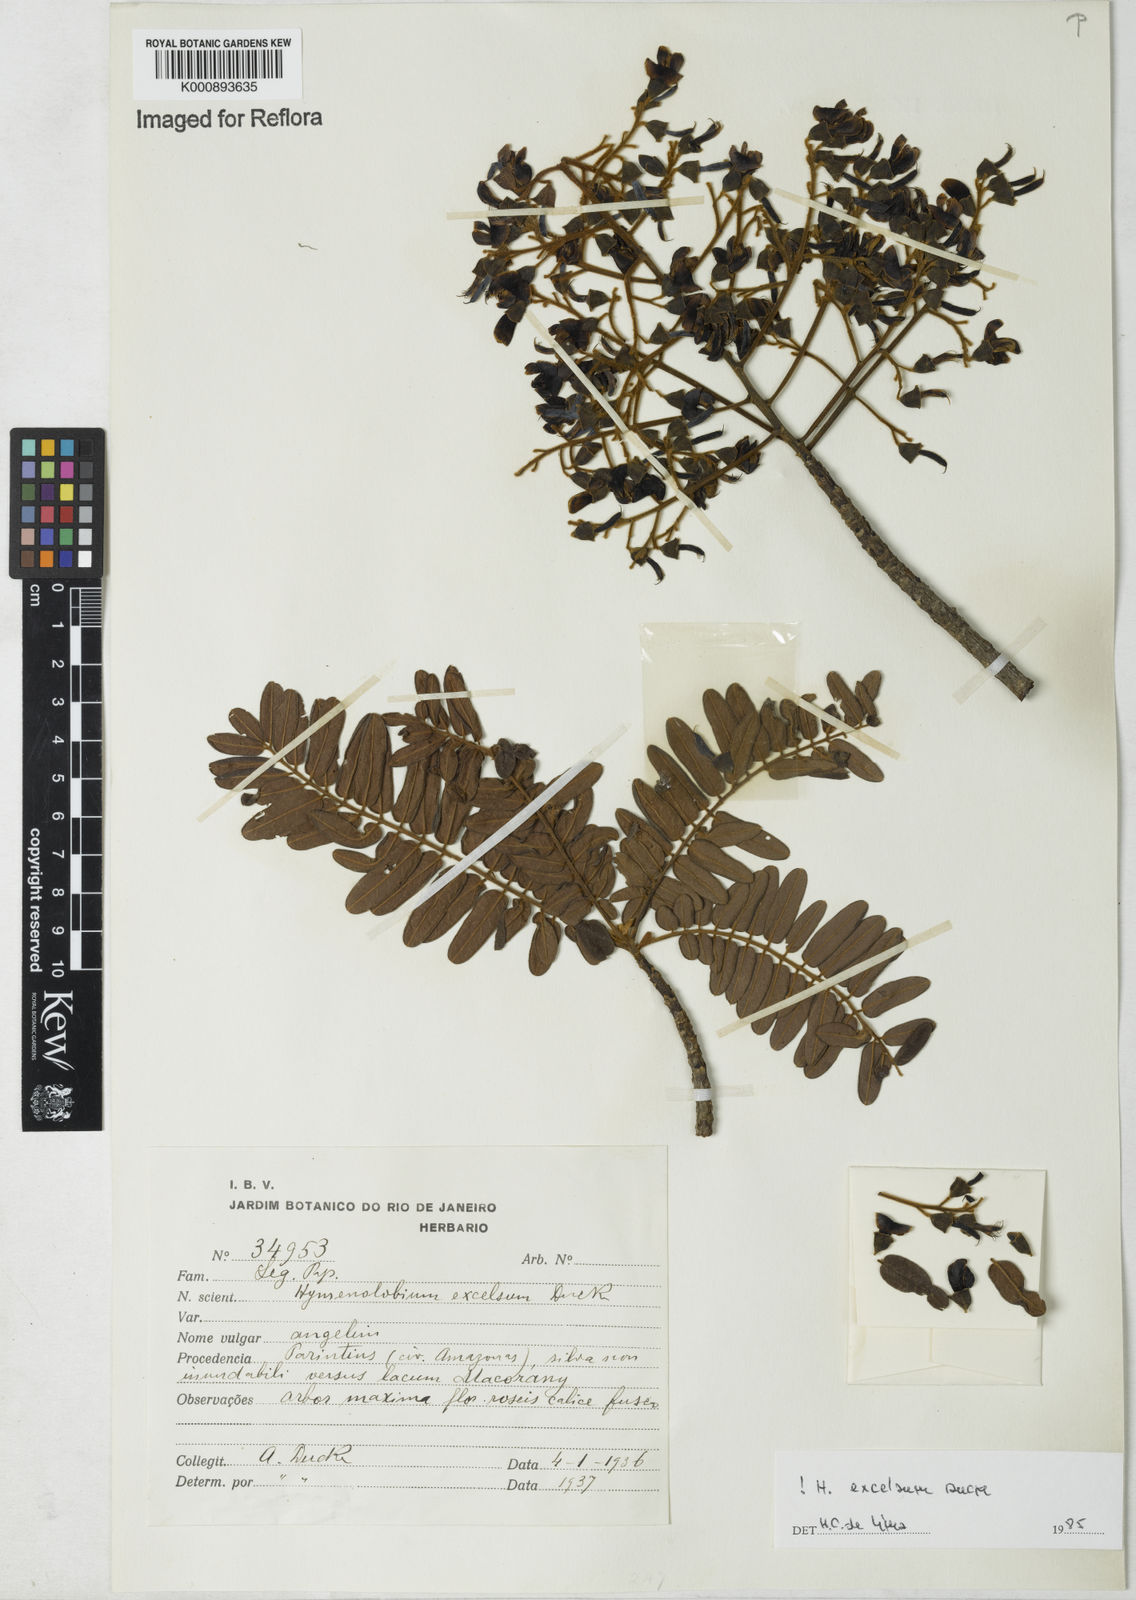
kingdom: Plantae
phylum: Tracheophyta
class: Magnoliopsida
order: Fabales
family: Fabaceae
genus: Hymenolobium
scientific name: Hymenolobium excelsum
